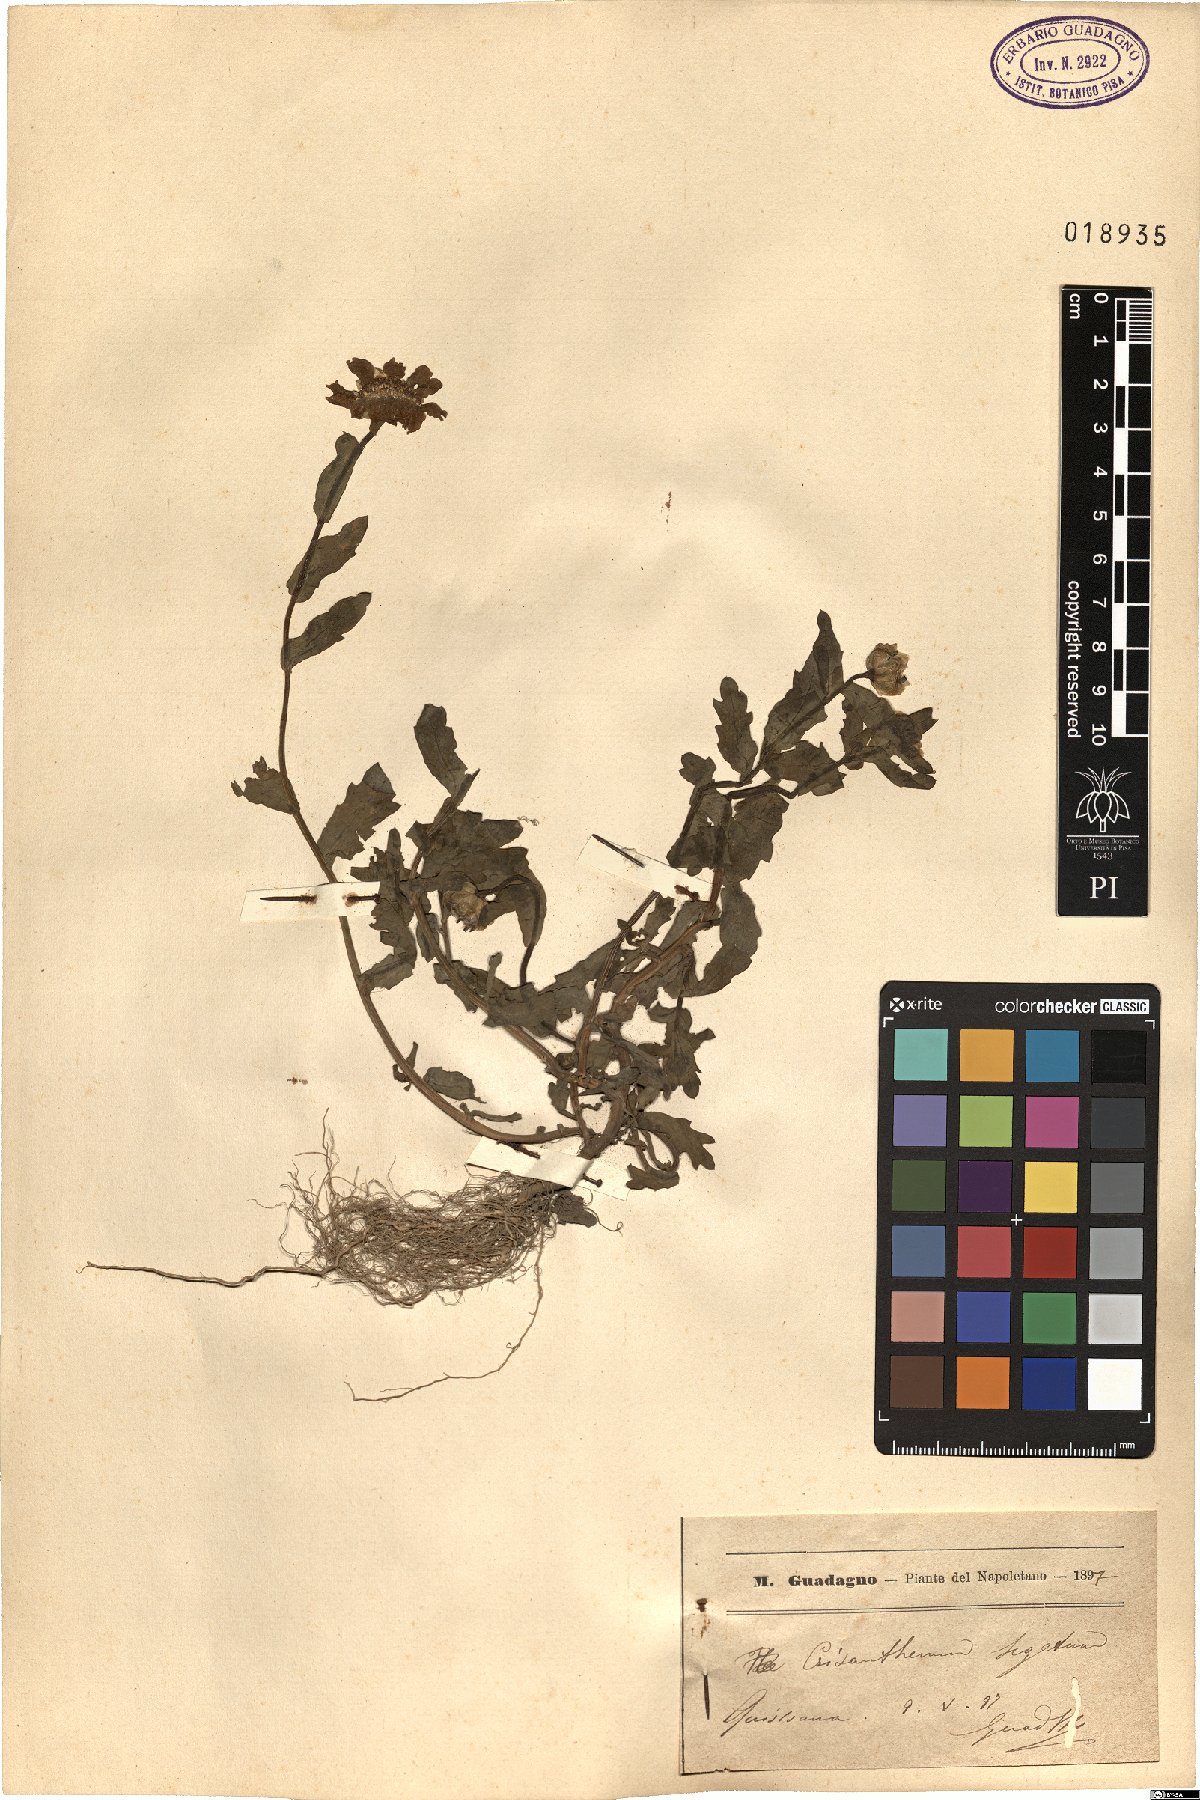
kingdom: Plantae
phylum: Tracheophyta
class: Magnoliopsida
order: Asterales
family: Asteraceae
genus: Glebionis
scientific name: Glebionis segetum
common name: Corndaisy
